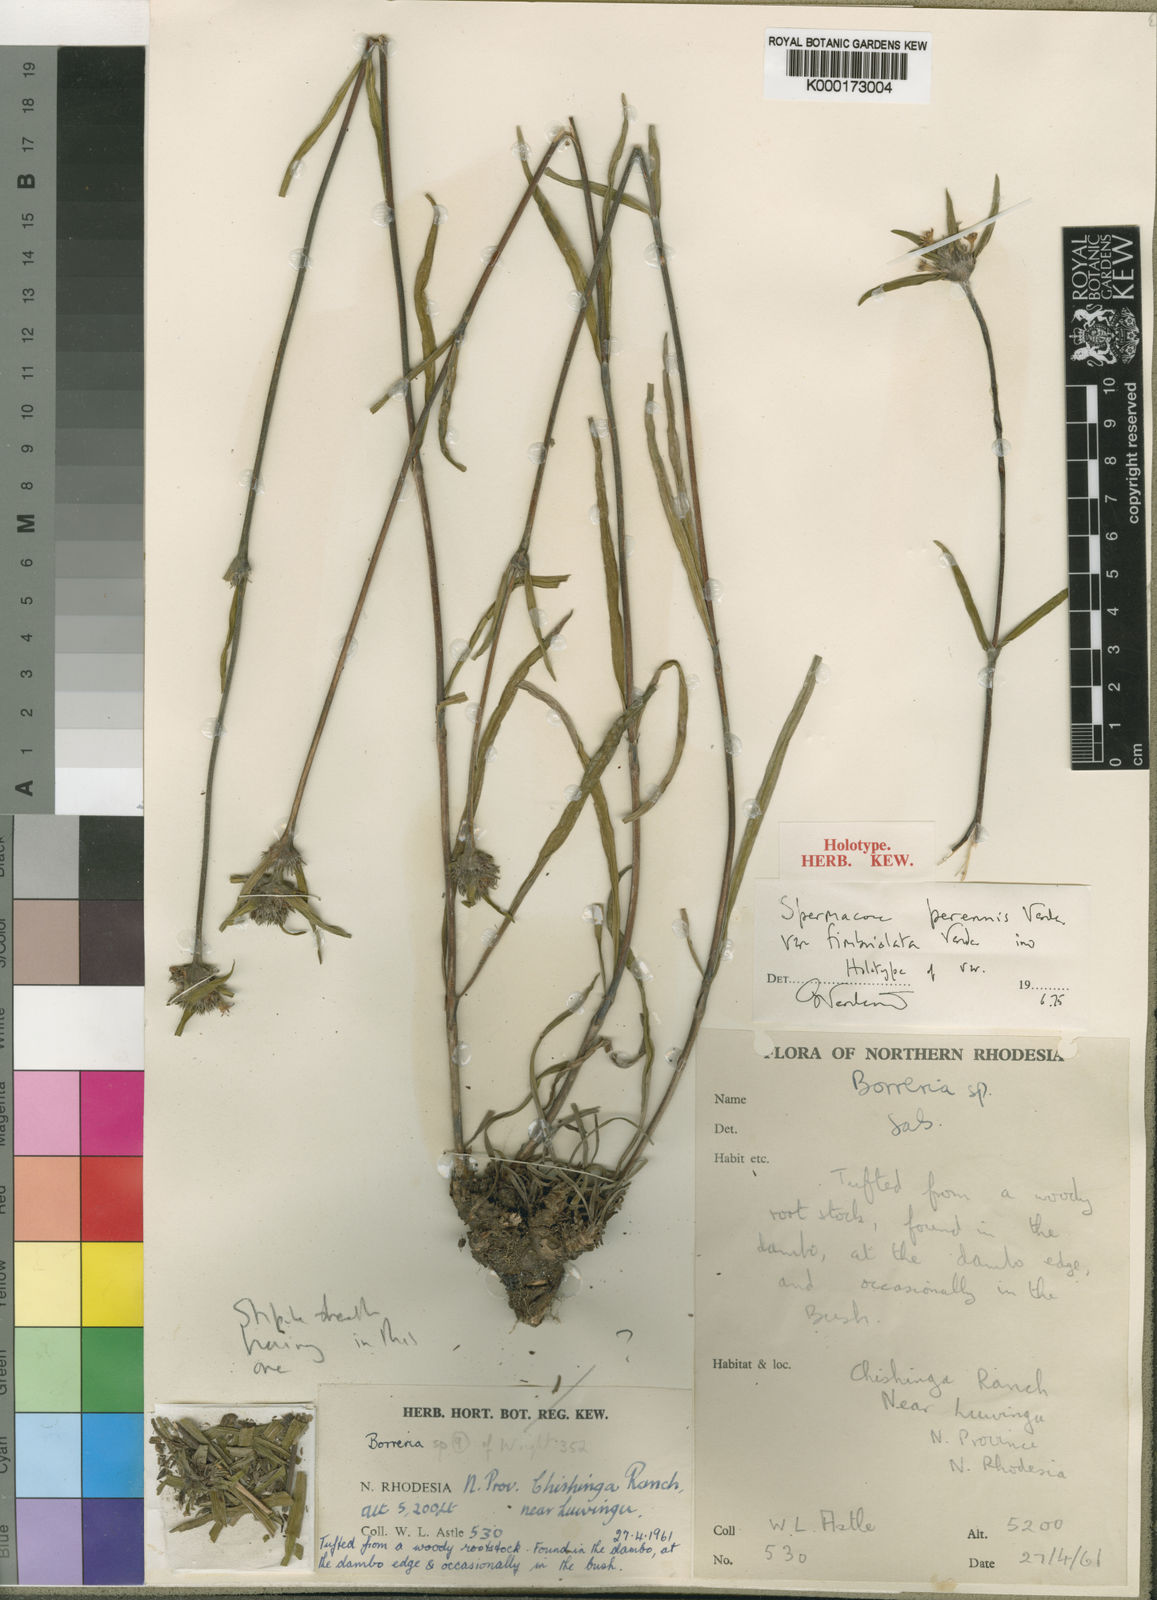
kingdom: Plantae
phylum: Tracheophyta
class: Magnoliopsida
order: Gentianales
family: Rubiaceae
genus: Spermacoce
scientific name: Spermacoce perennis
